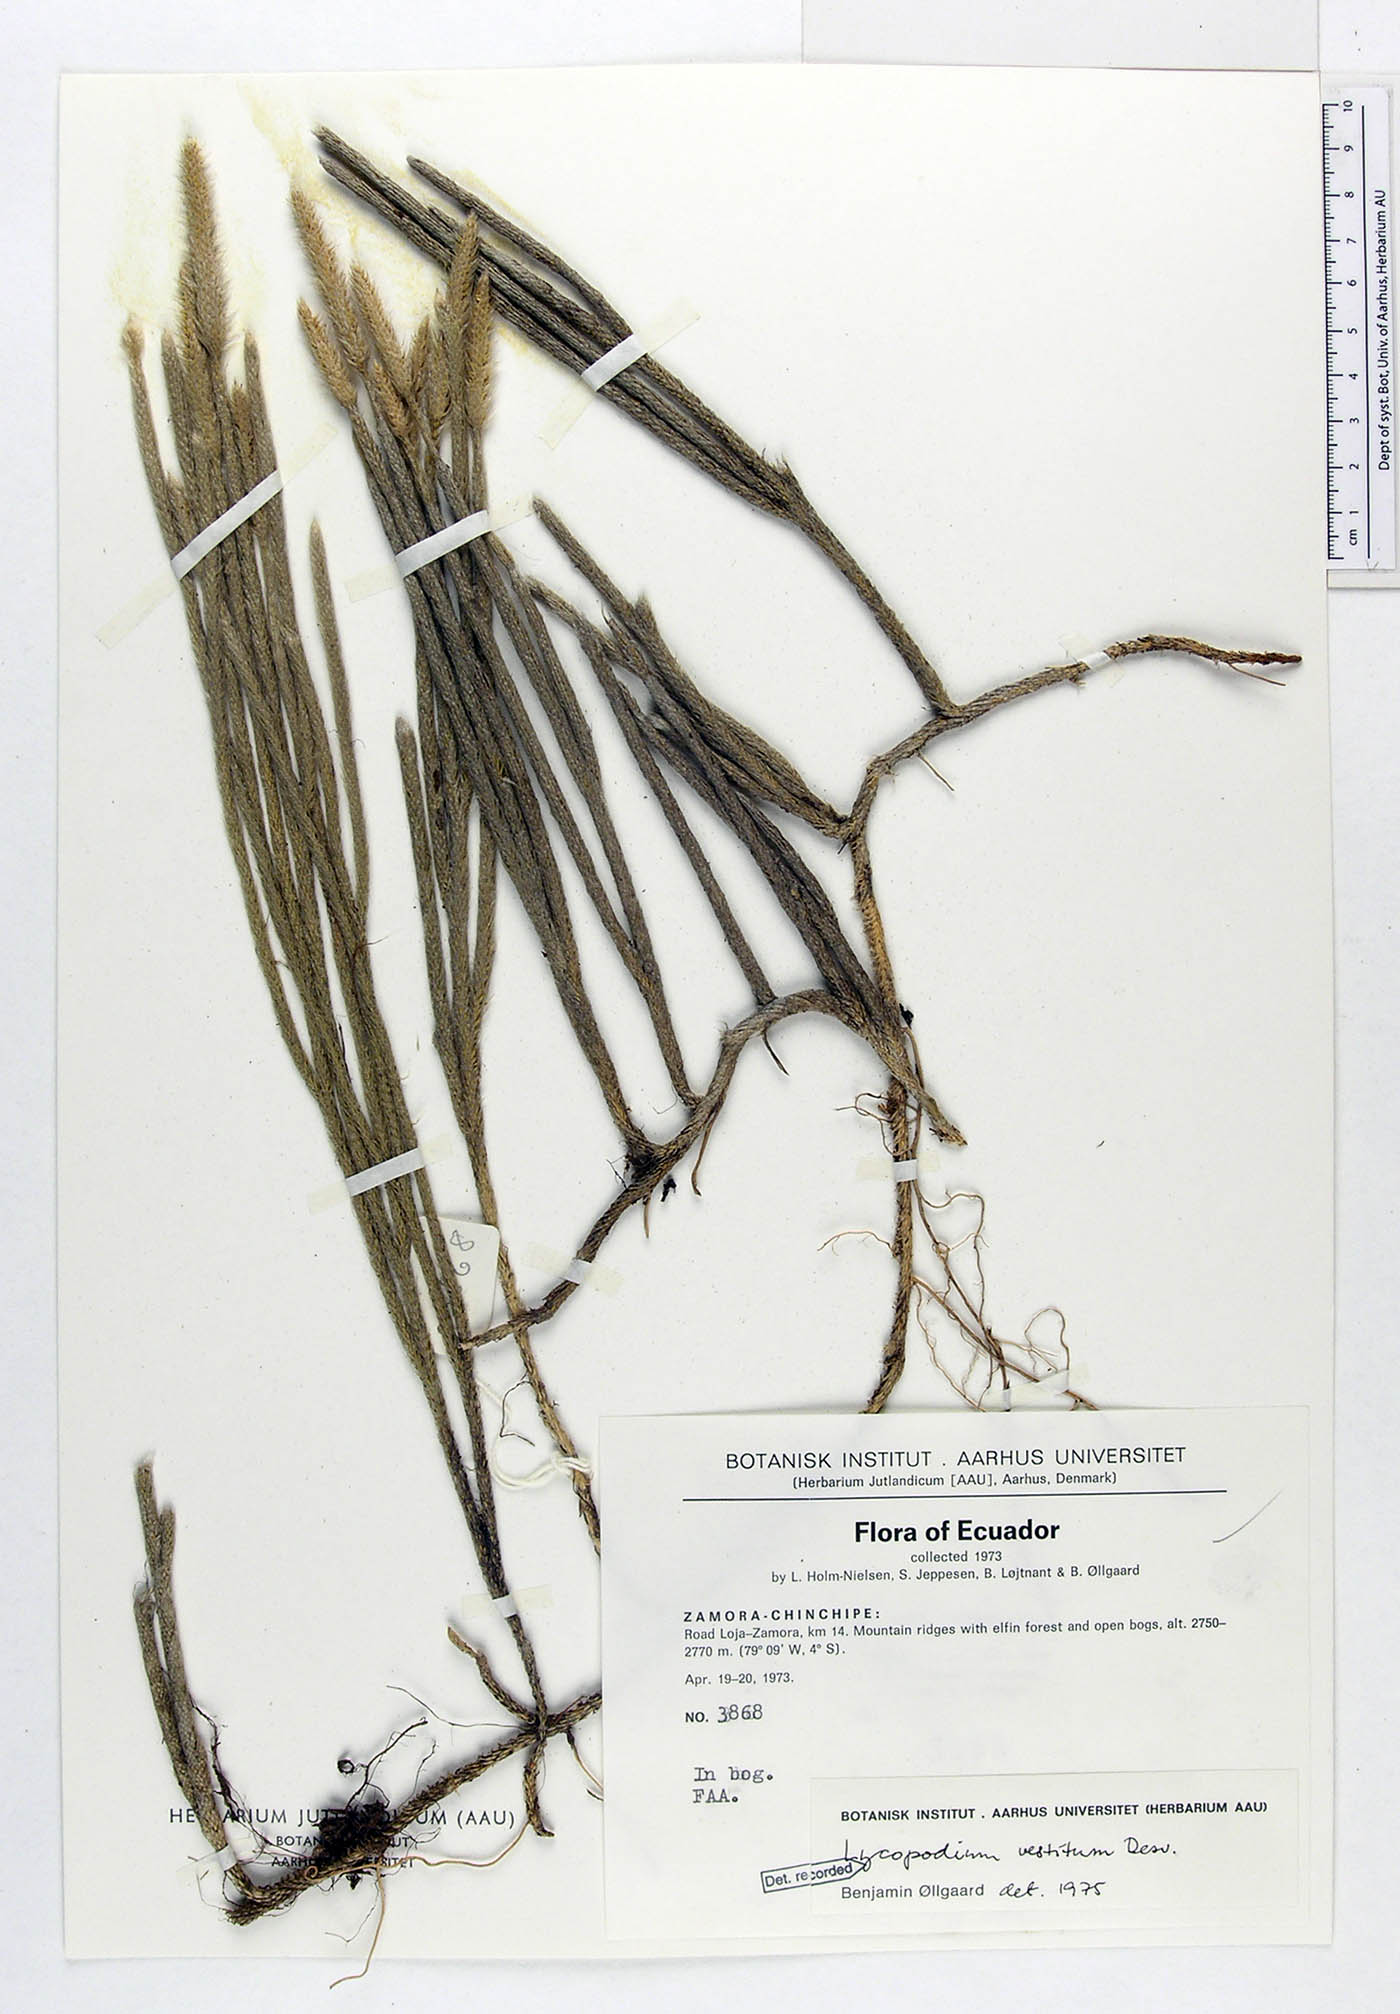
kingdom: Plantae
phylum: Tracheophyta
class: Lycopodiopsida
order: Lycopodiales
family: Lycopodiaceae
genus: Lycopodium
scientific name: Lycopodium vestitum
